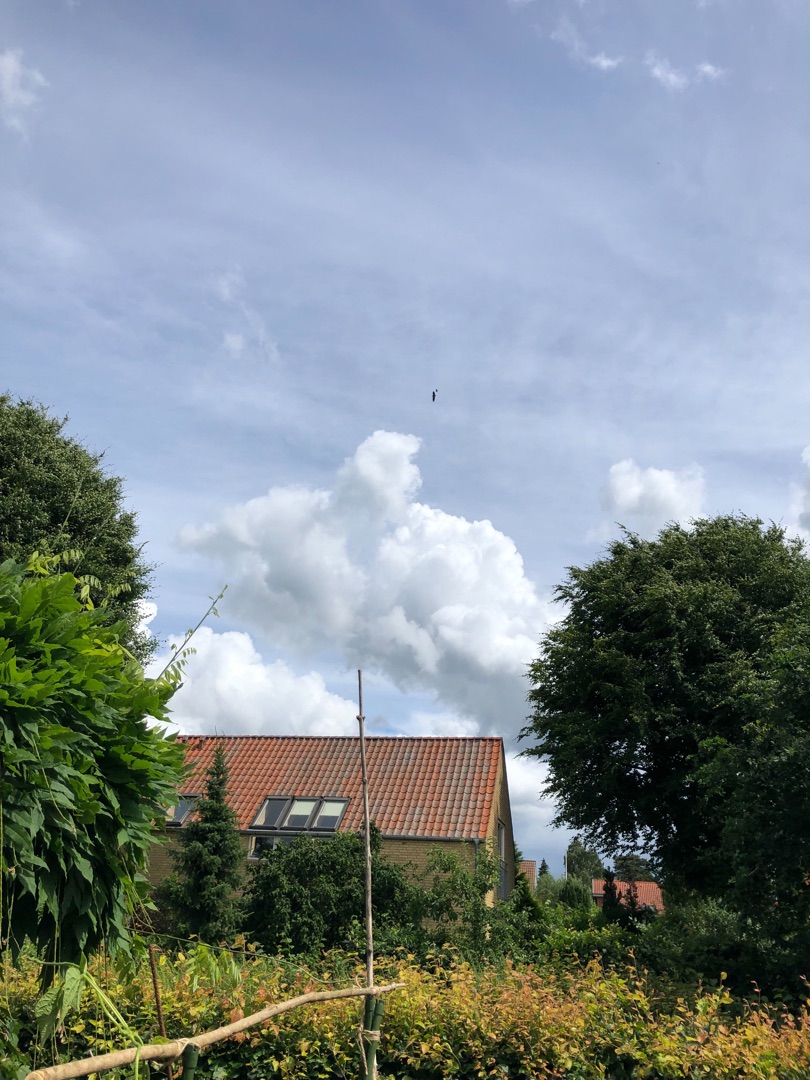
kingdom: Animalia
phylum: Chordata
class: Aves
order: Accipitriformes
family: Accipitridae
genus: Haliaeetus
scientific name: Haliaeetus albicilla
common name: Havørn
